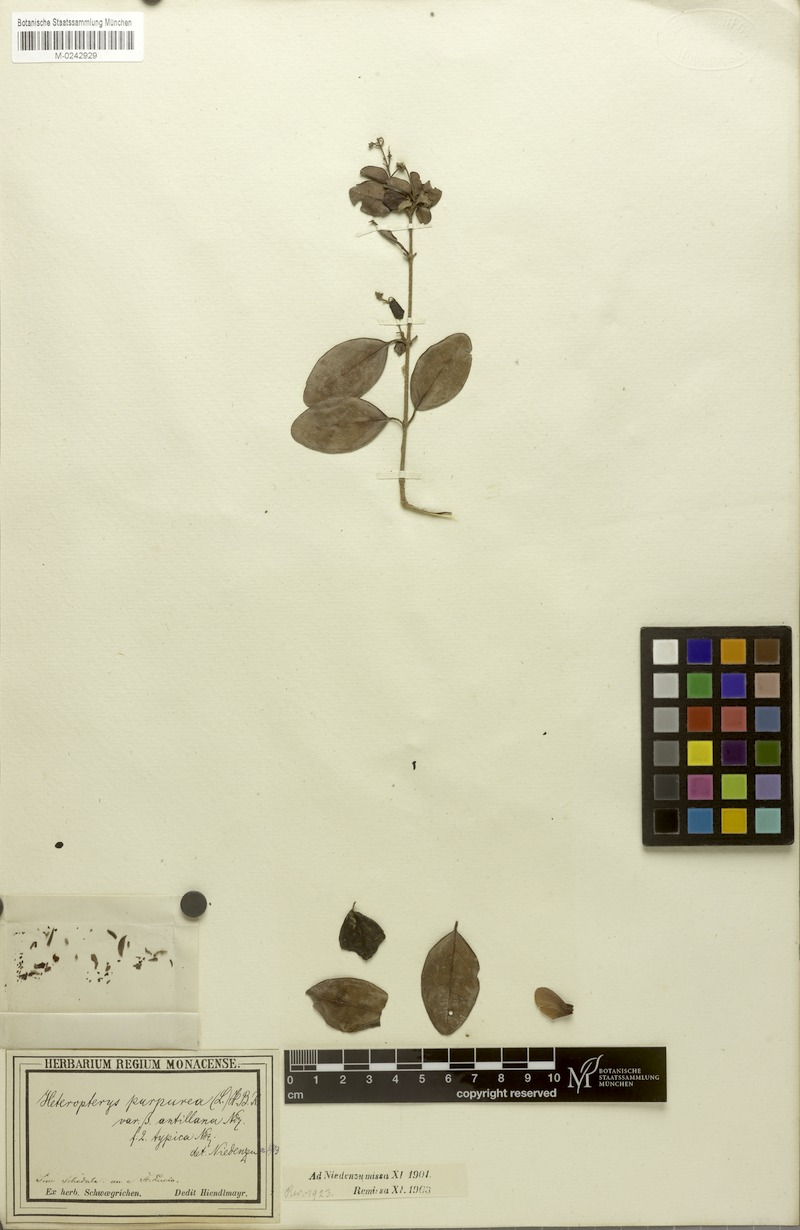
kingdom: Plantae
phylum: Tracheophyta
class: Magnoliopsida
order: Malpighiales
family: Malpighiaceae
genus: Heteropterys
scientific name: Heteropterys purpurea
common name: Bull withe
